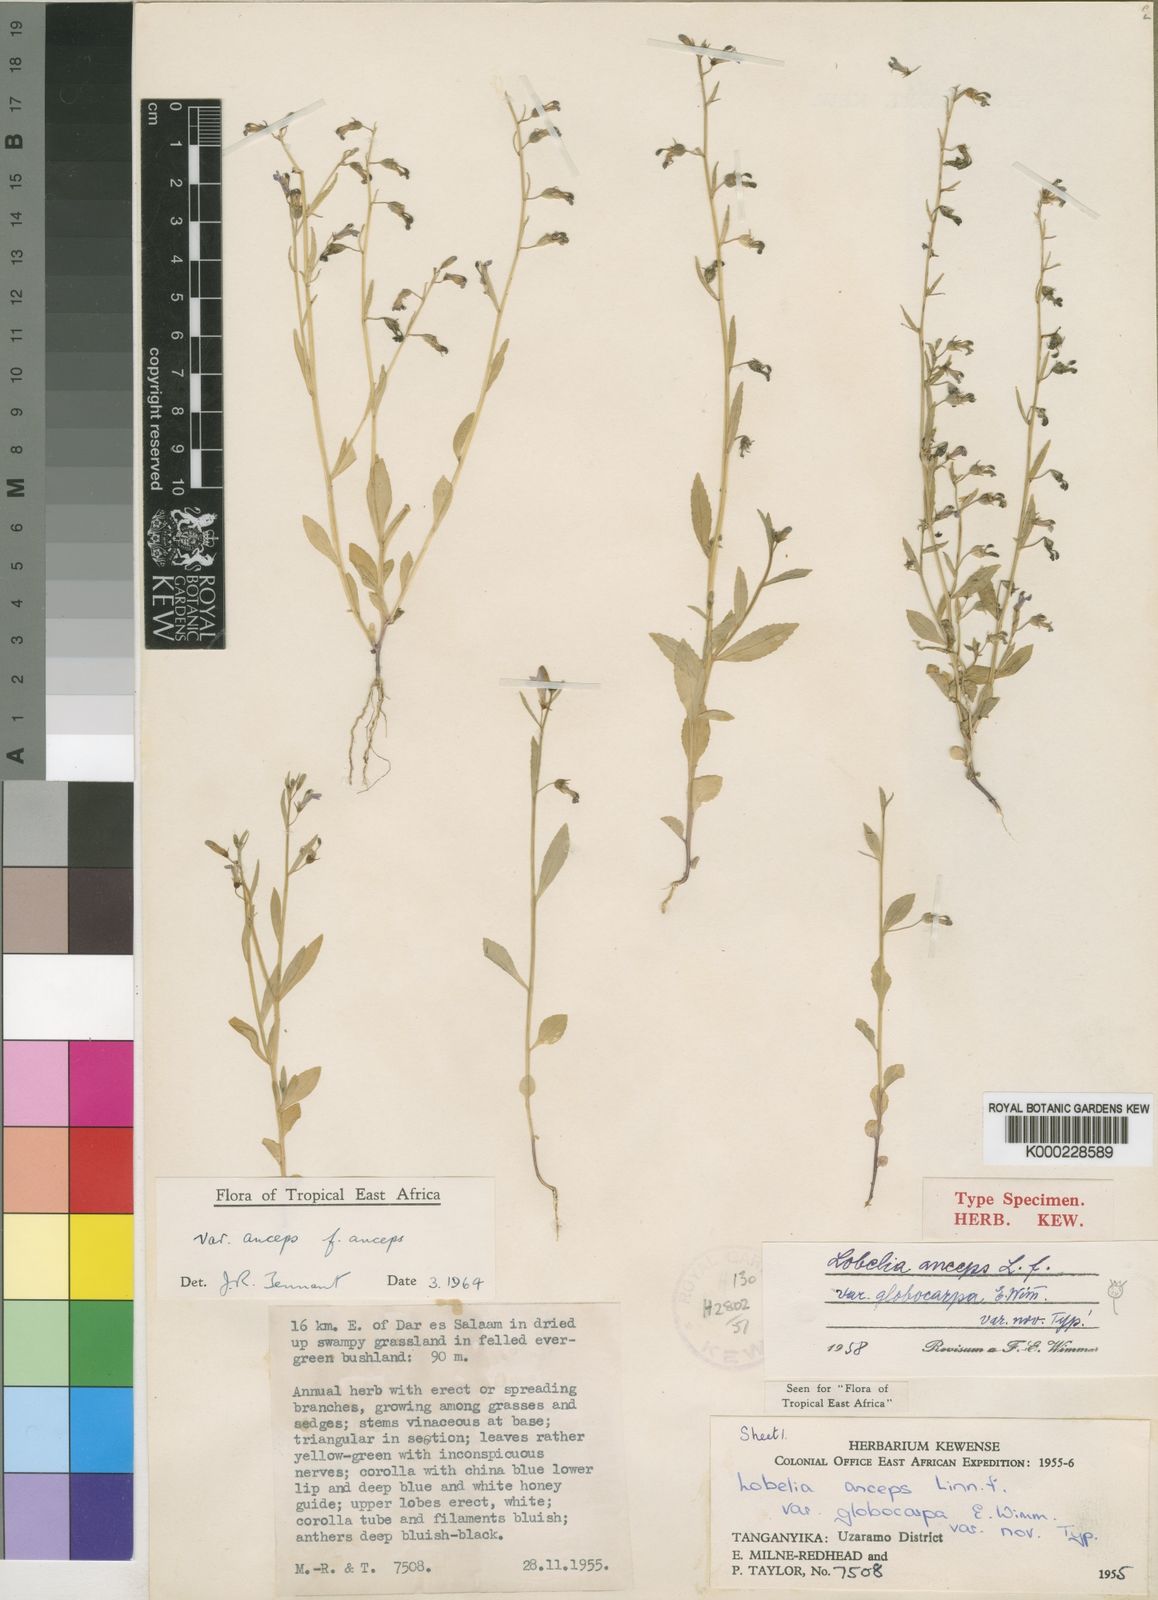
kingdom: Plantae
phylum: Tracheophyta
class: Magnoliopsida
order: Asterales
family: Campanulaceae
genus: Lobelia
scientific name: Lobelia anceps
